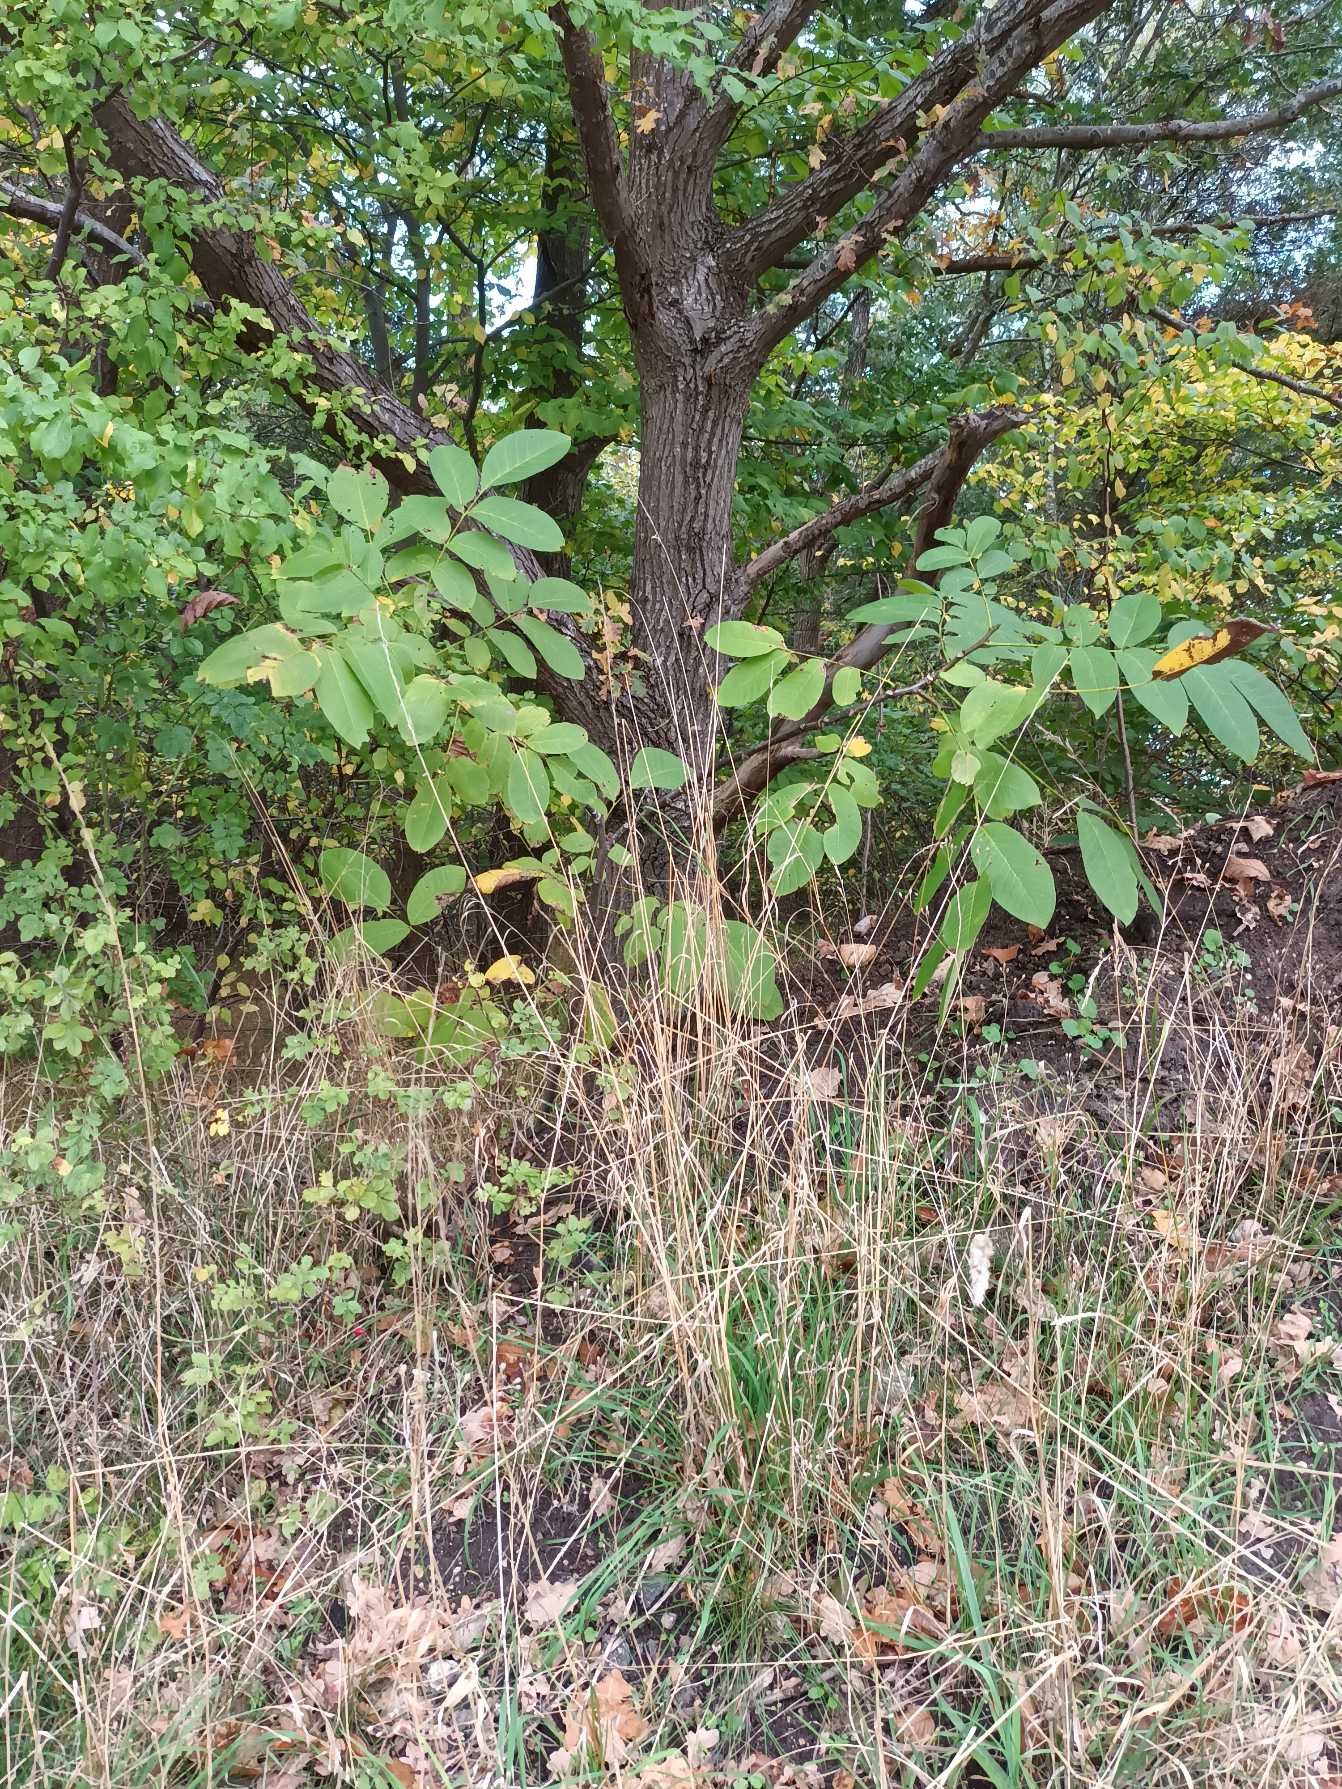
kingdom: Plantae
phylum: Tracheophyta
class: Magnoliopsida
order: Fagales
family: Juglandaceae
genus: Juglans
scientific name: Juglans regia
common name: Almindelig valnød
